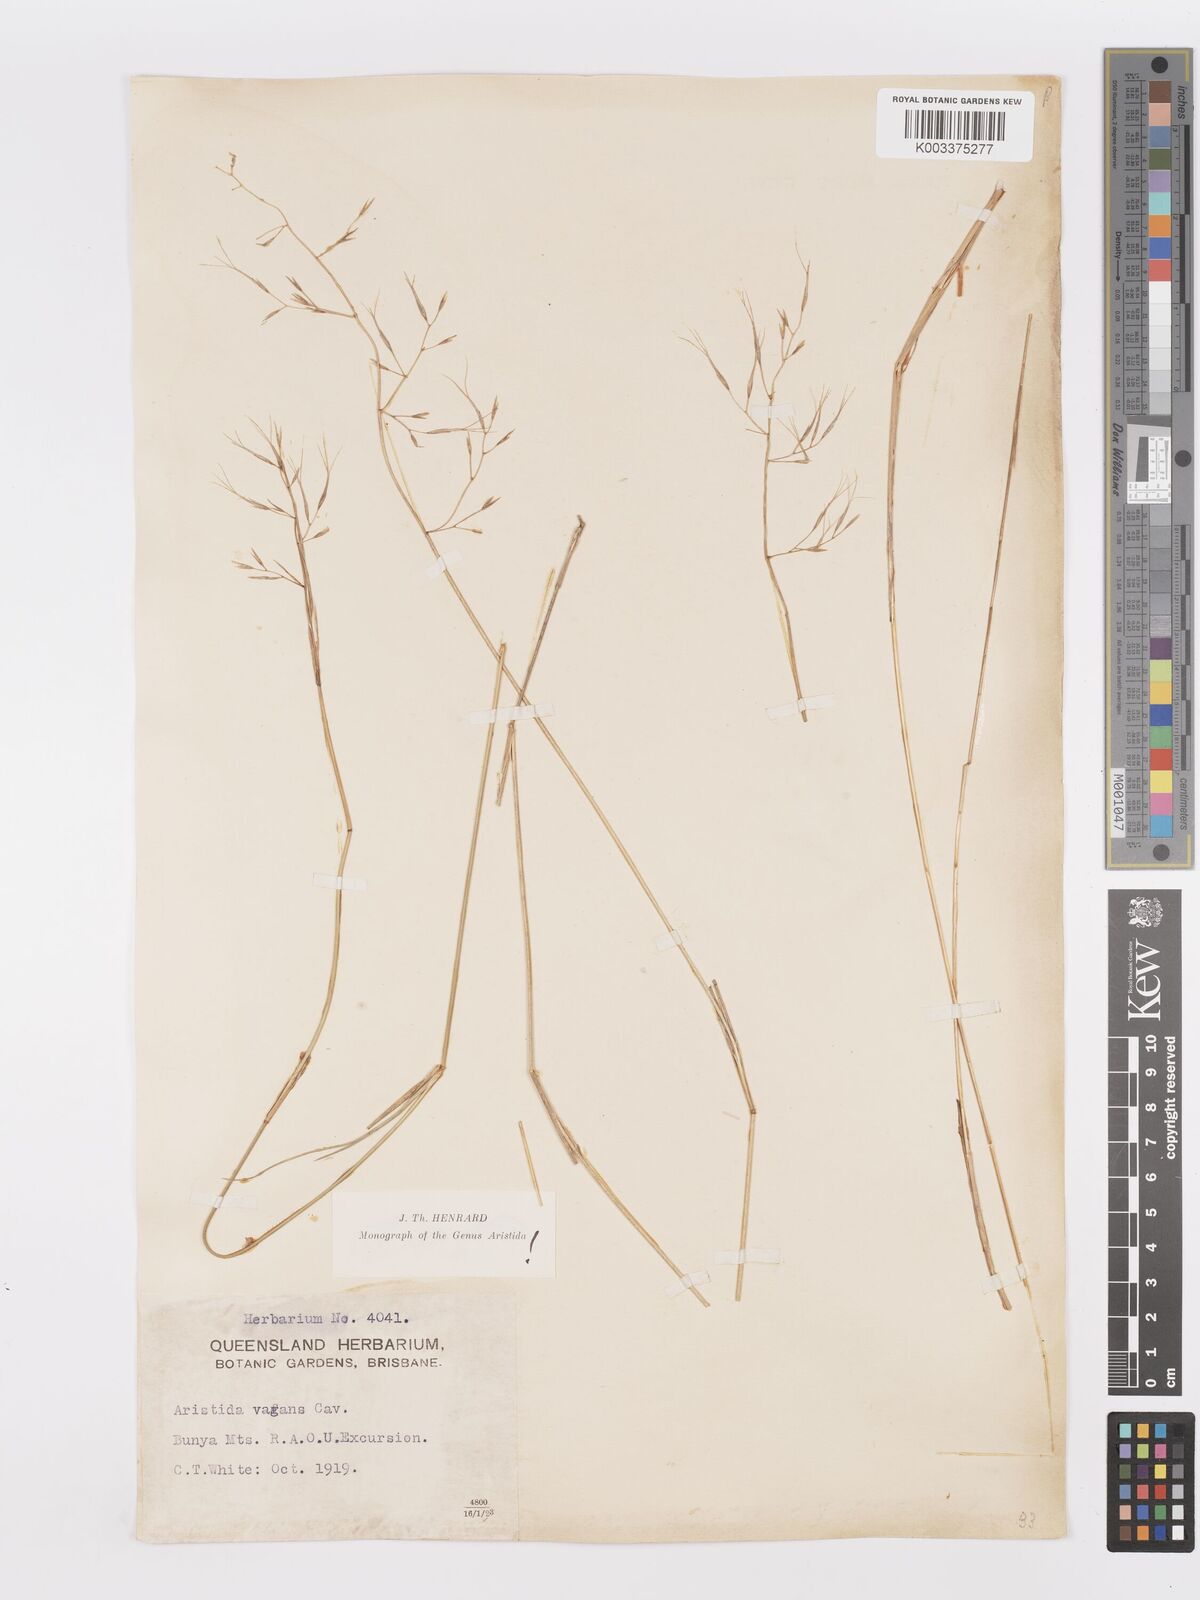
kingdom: Plantae
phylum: Tracheophyta
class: Liliopsida
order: Poales
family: Poaceae
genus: Aristida
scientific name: Aristida vagans
